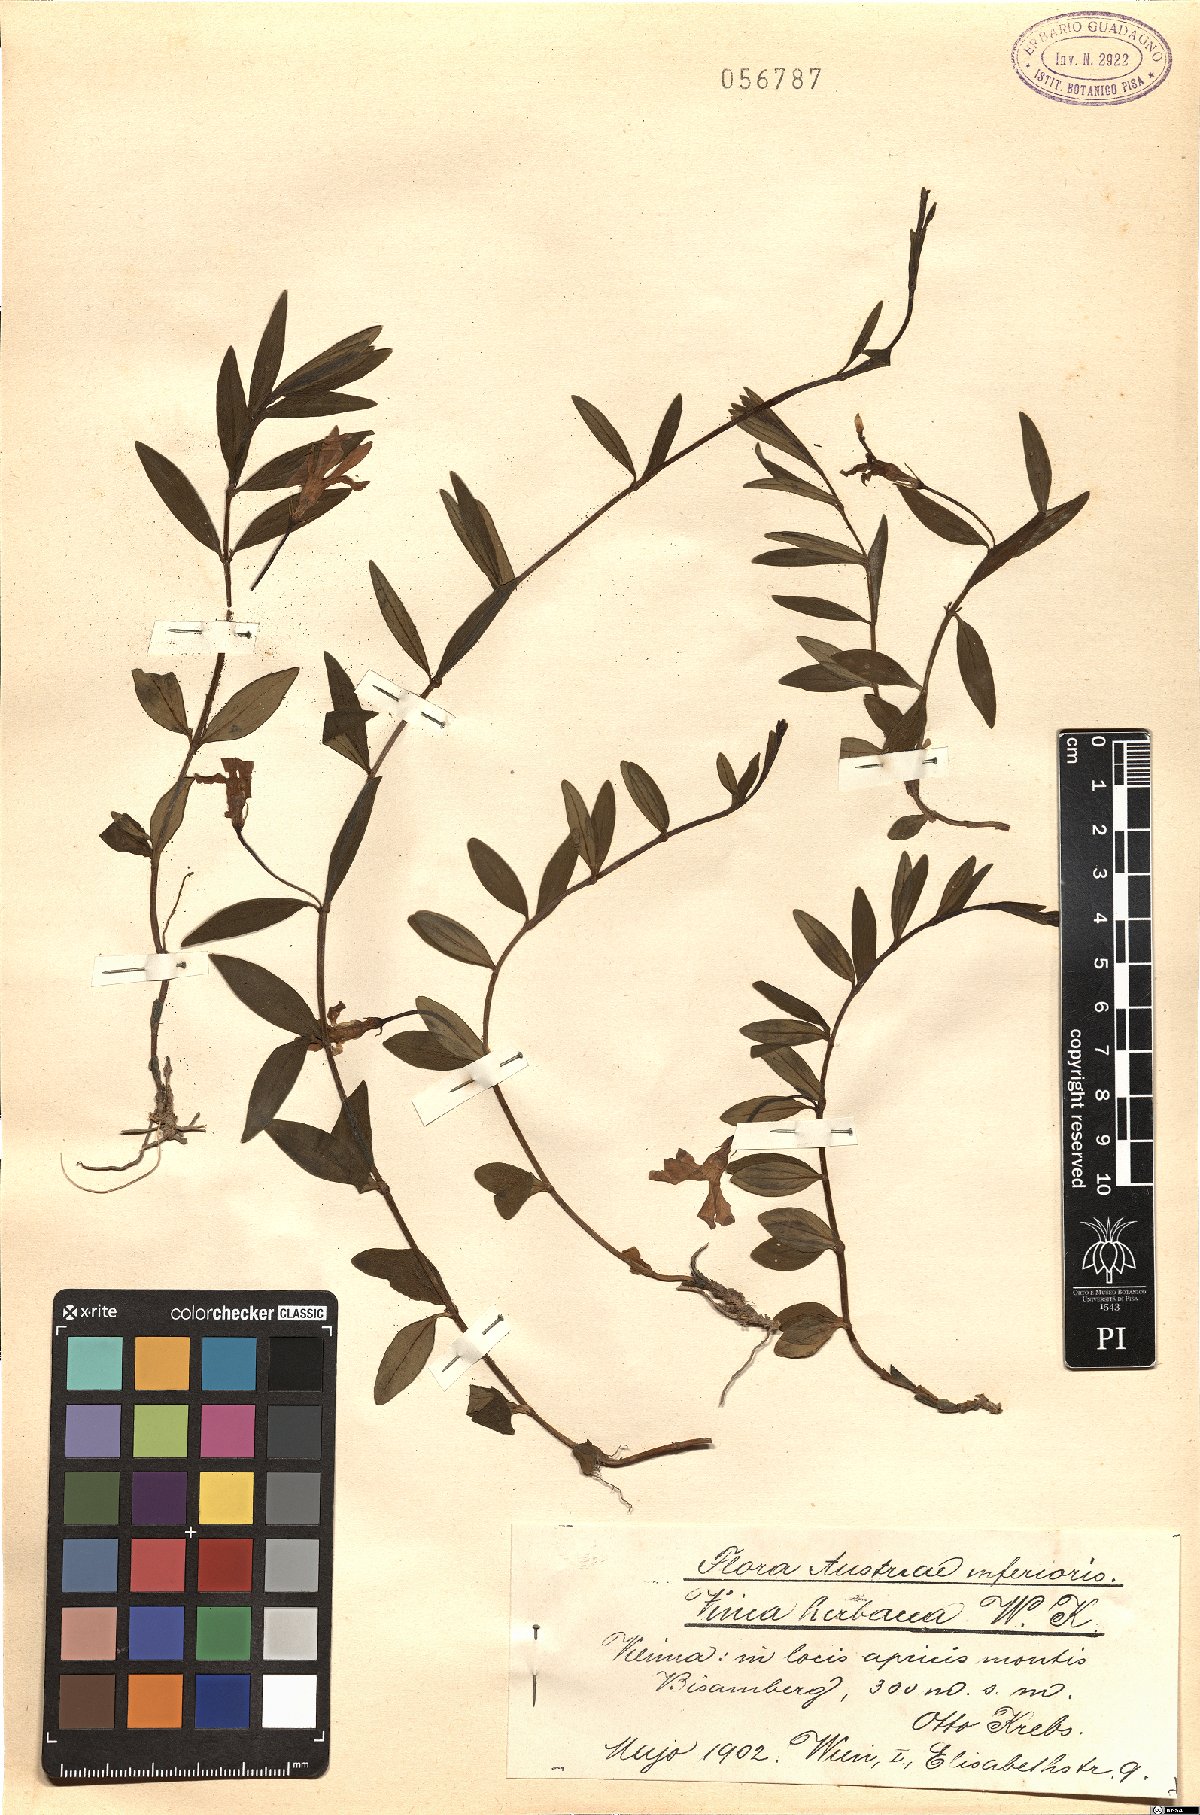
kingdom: Plantae
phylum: Tracheophyta
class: Magnoliopsida
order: Gentianales
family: Apocynaceae
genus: Vinca
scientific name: Vinca herbacea
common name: Herbaceous periwinkle
